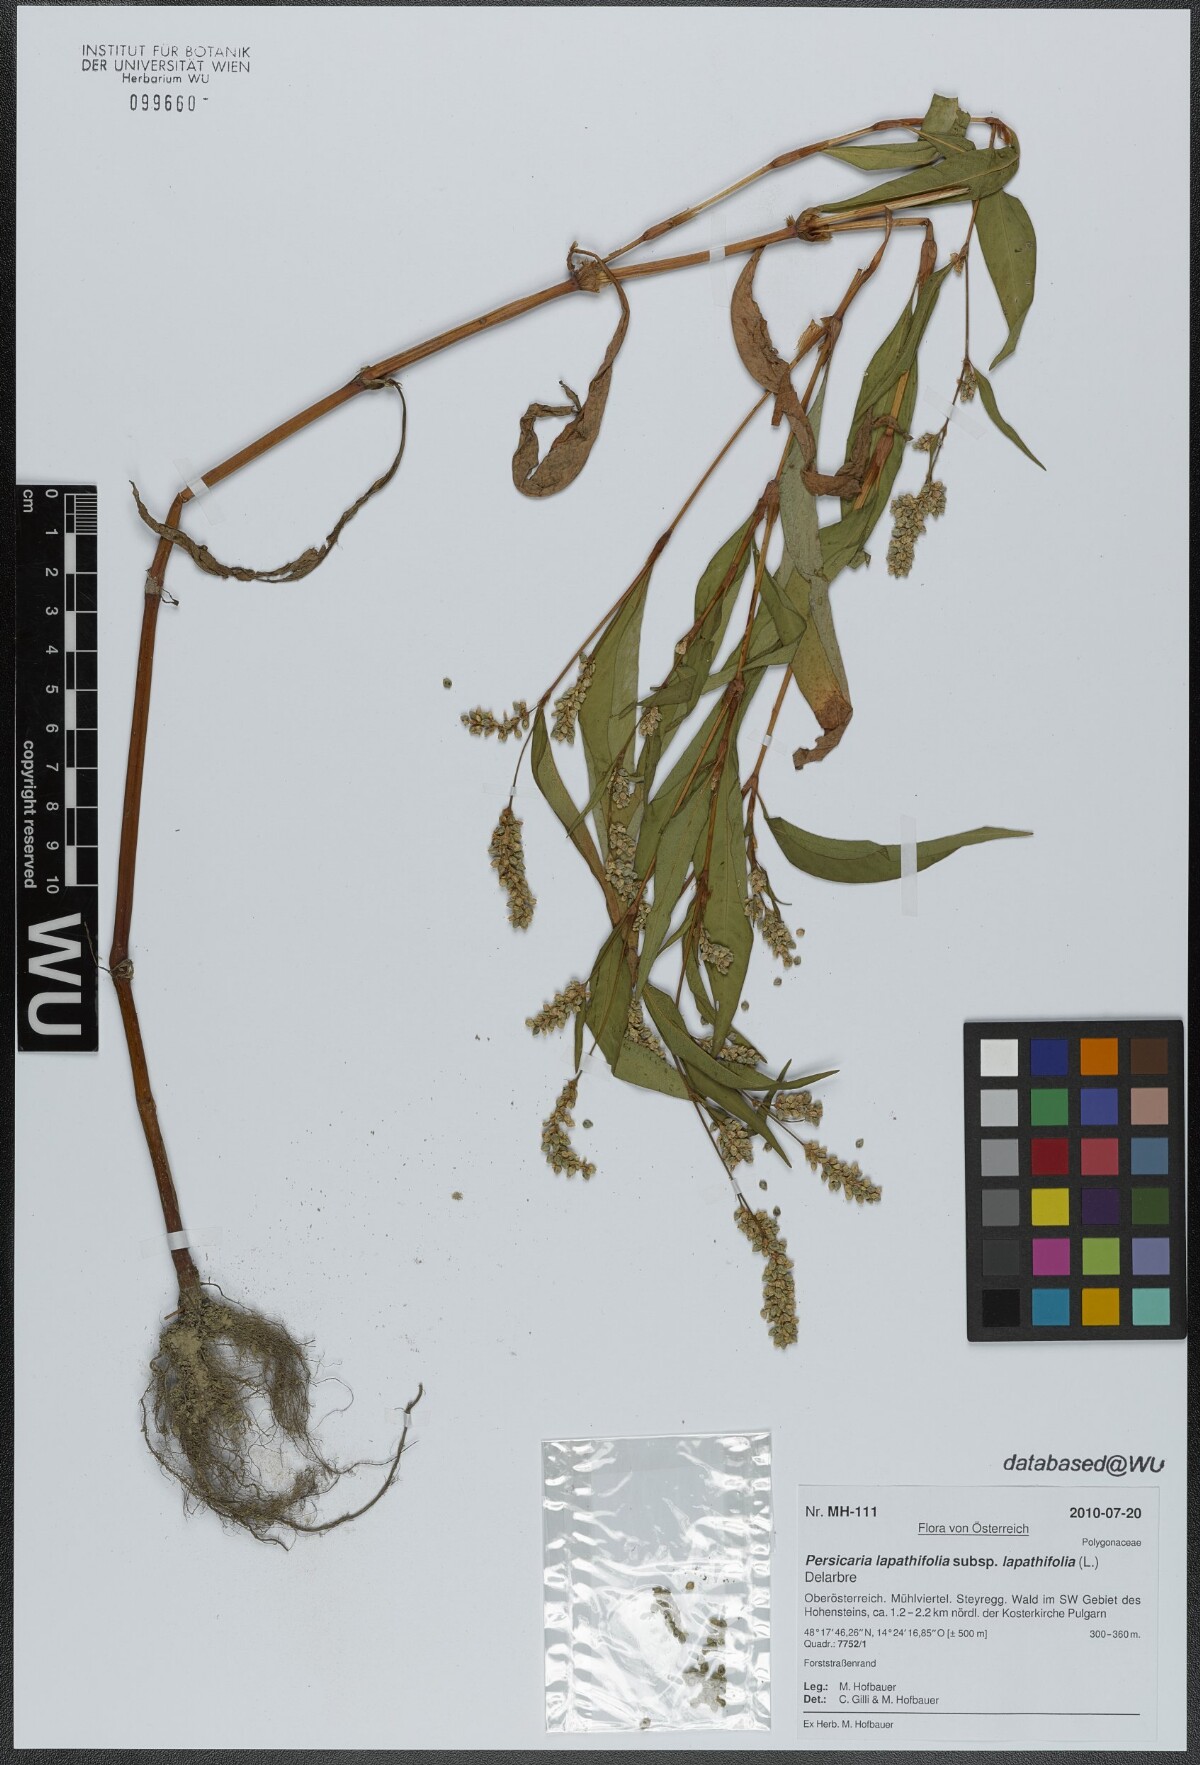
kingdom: Plantae
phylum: Tracheophyta
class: Magnoliopsida
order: Caryophyllales
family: Polygonaceae
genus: Persicaria
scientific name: Persicaria lapathifolia
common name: Curlytop knotweed
